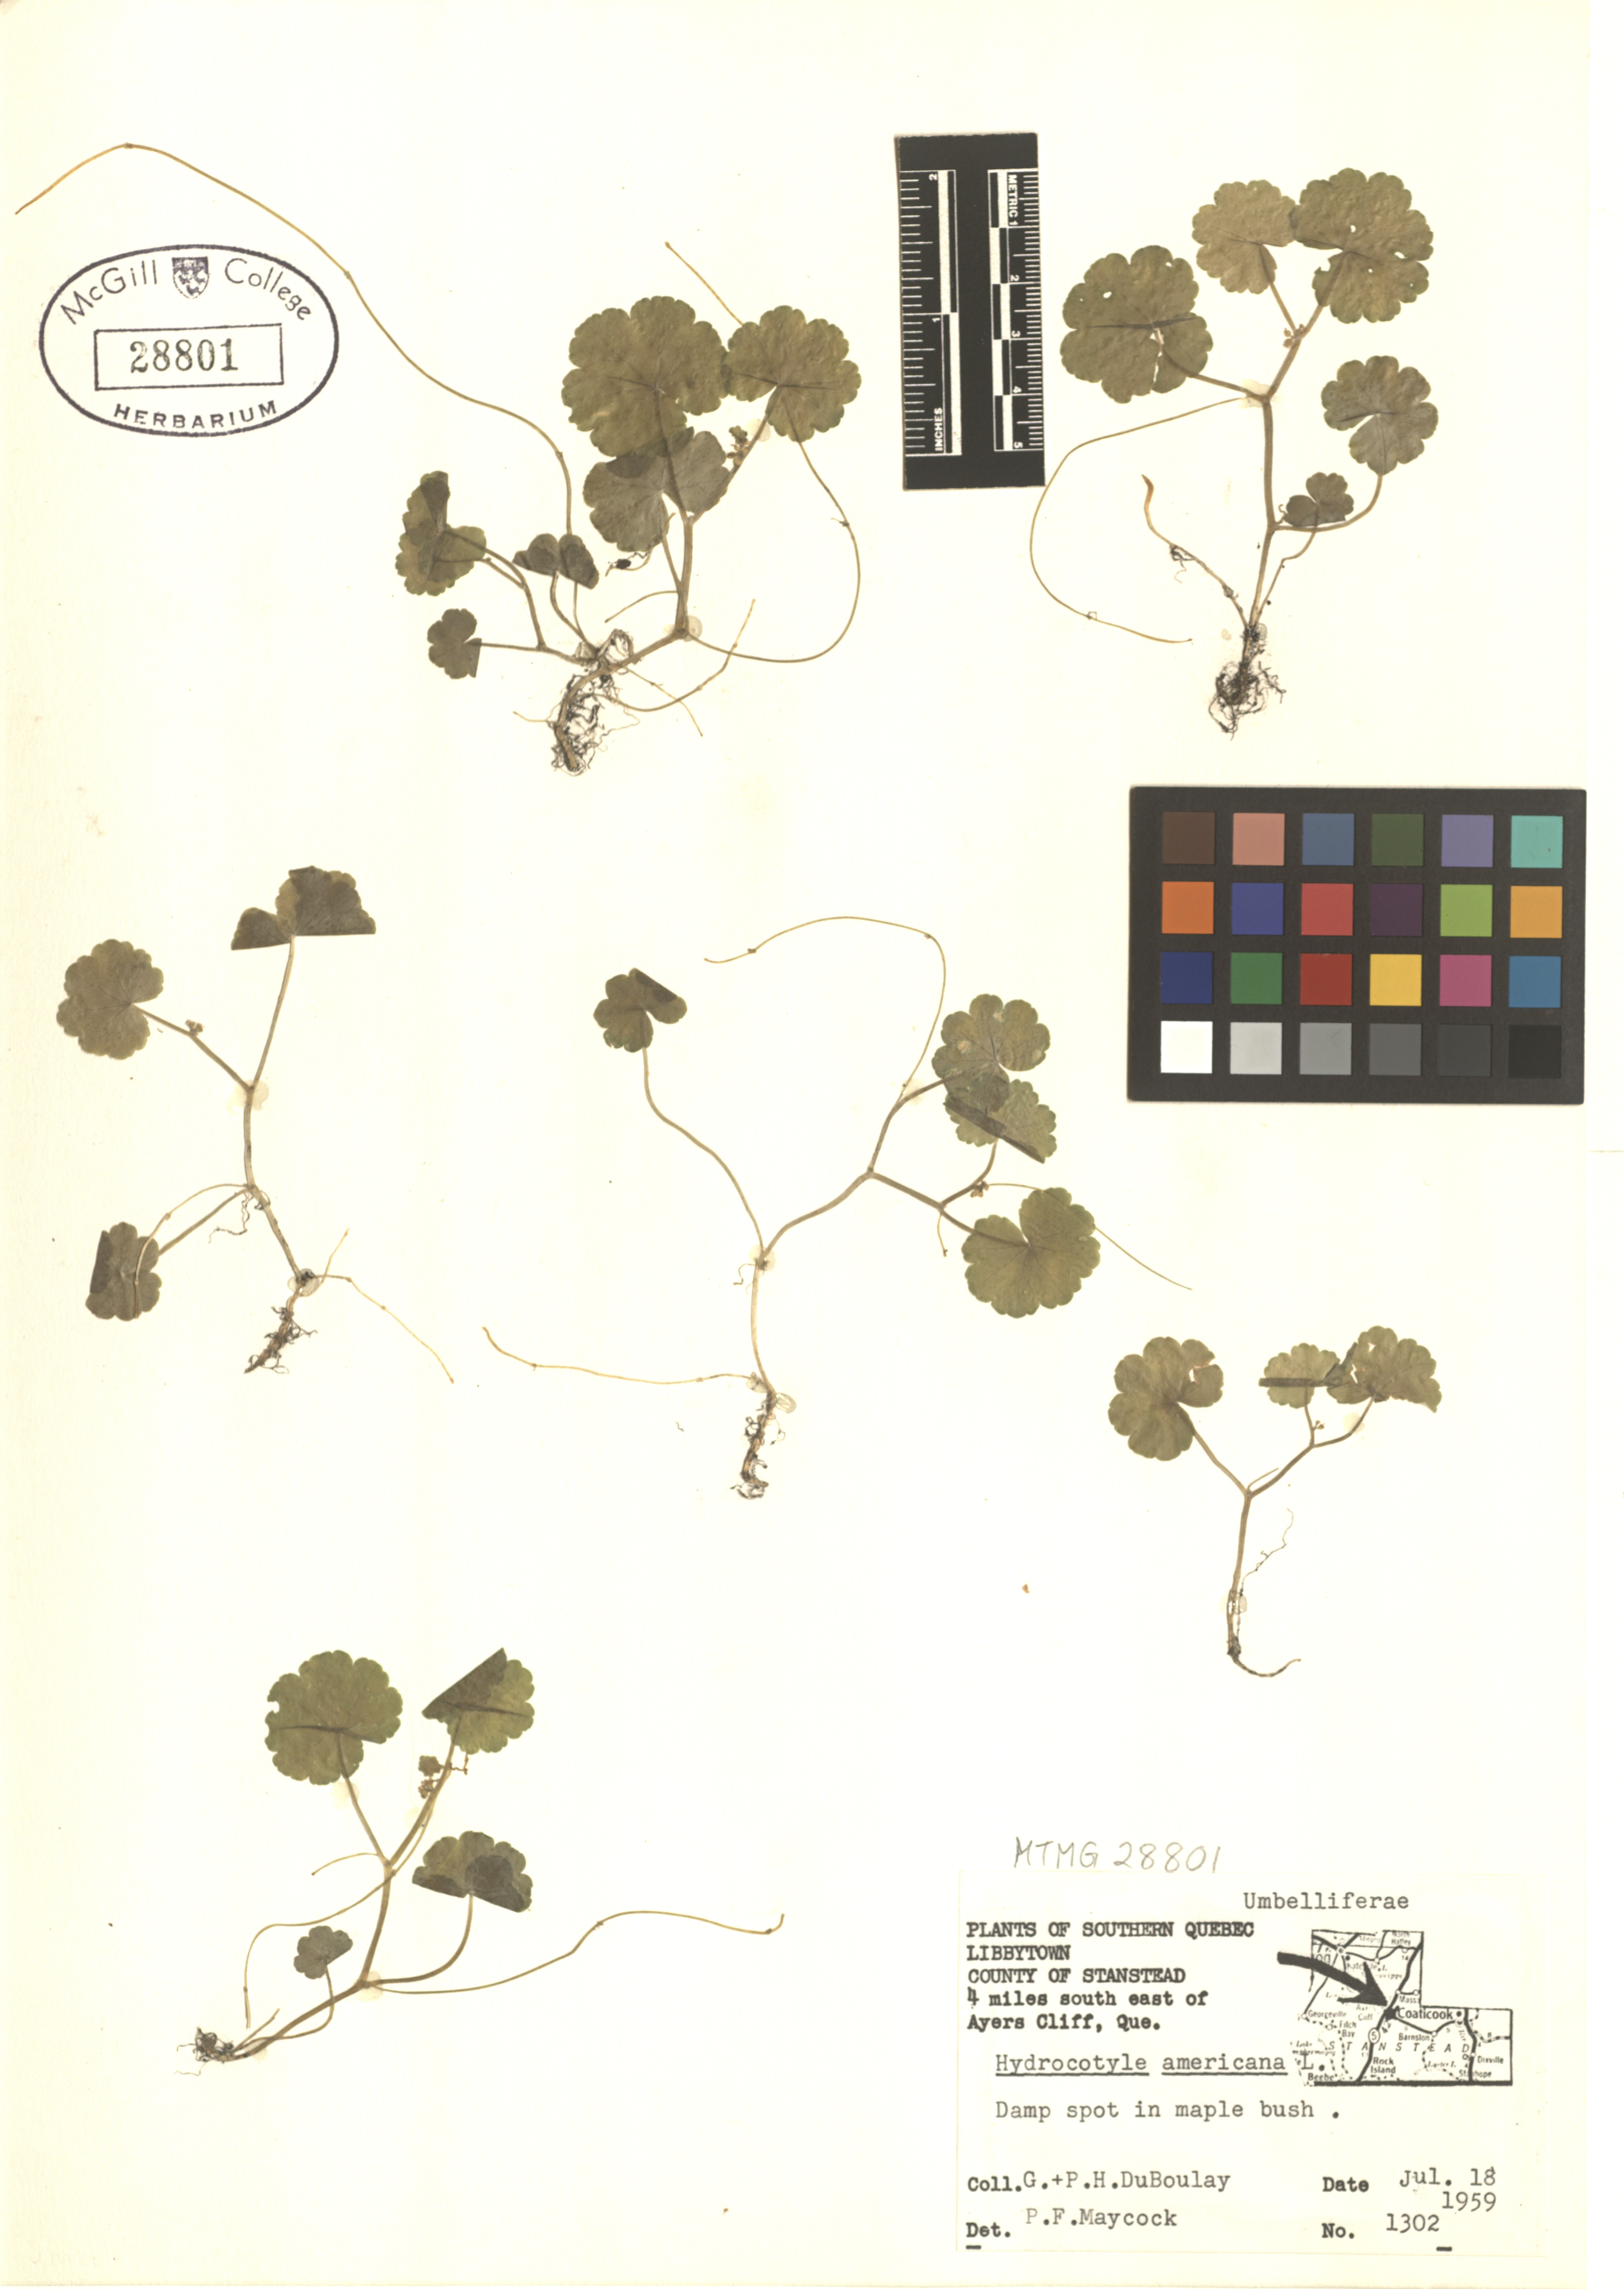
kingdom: Plantae
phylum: Tracheophyta
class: Magnoliopsida
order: Apiales
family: Araliaceae
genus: Hydrocotyle
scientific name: Hydrocotyle americana
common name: American water-pennywort
